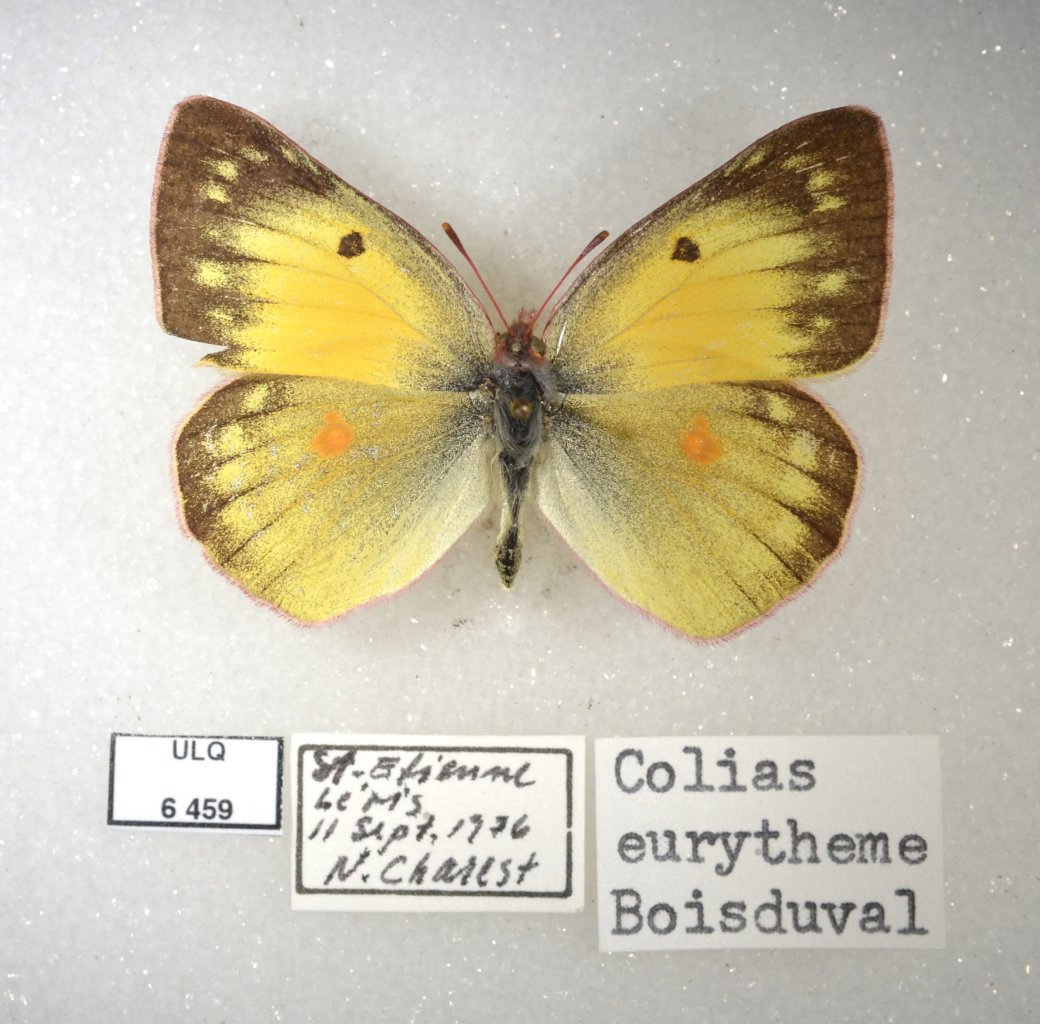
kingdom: Animalia
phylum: Arthropoda
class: Insecta
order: Lepidoptera
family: Pieridae
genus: Colias
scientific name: Colias eurytheme
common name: Orange Sulphur
